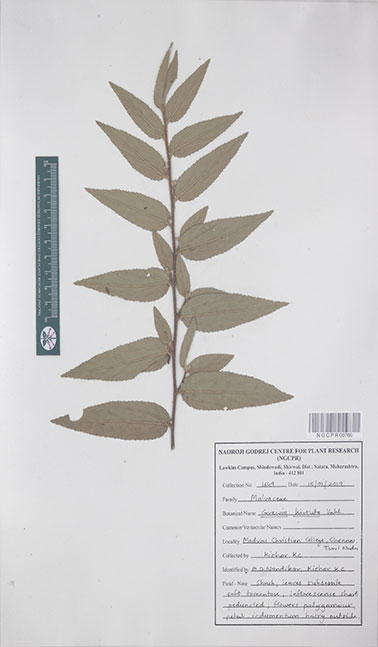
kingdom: Plantae
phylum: Tracheophyta
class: Magnoliopsida
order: Malvales
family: Malvaceae
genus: Grewia
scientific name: Grewia hirsuta
